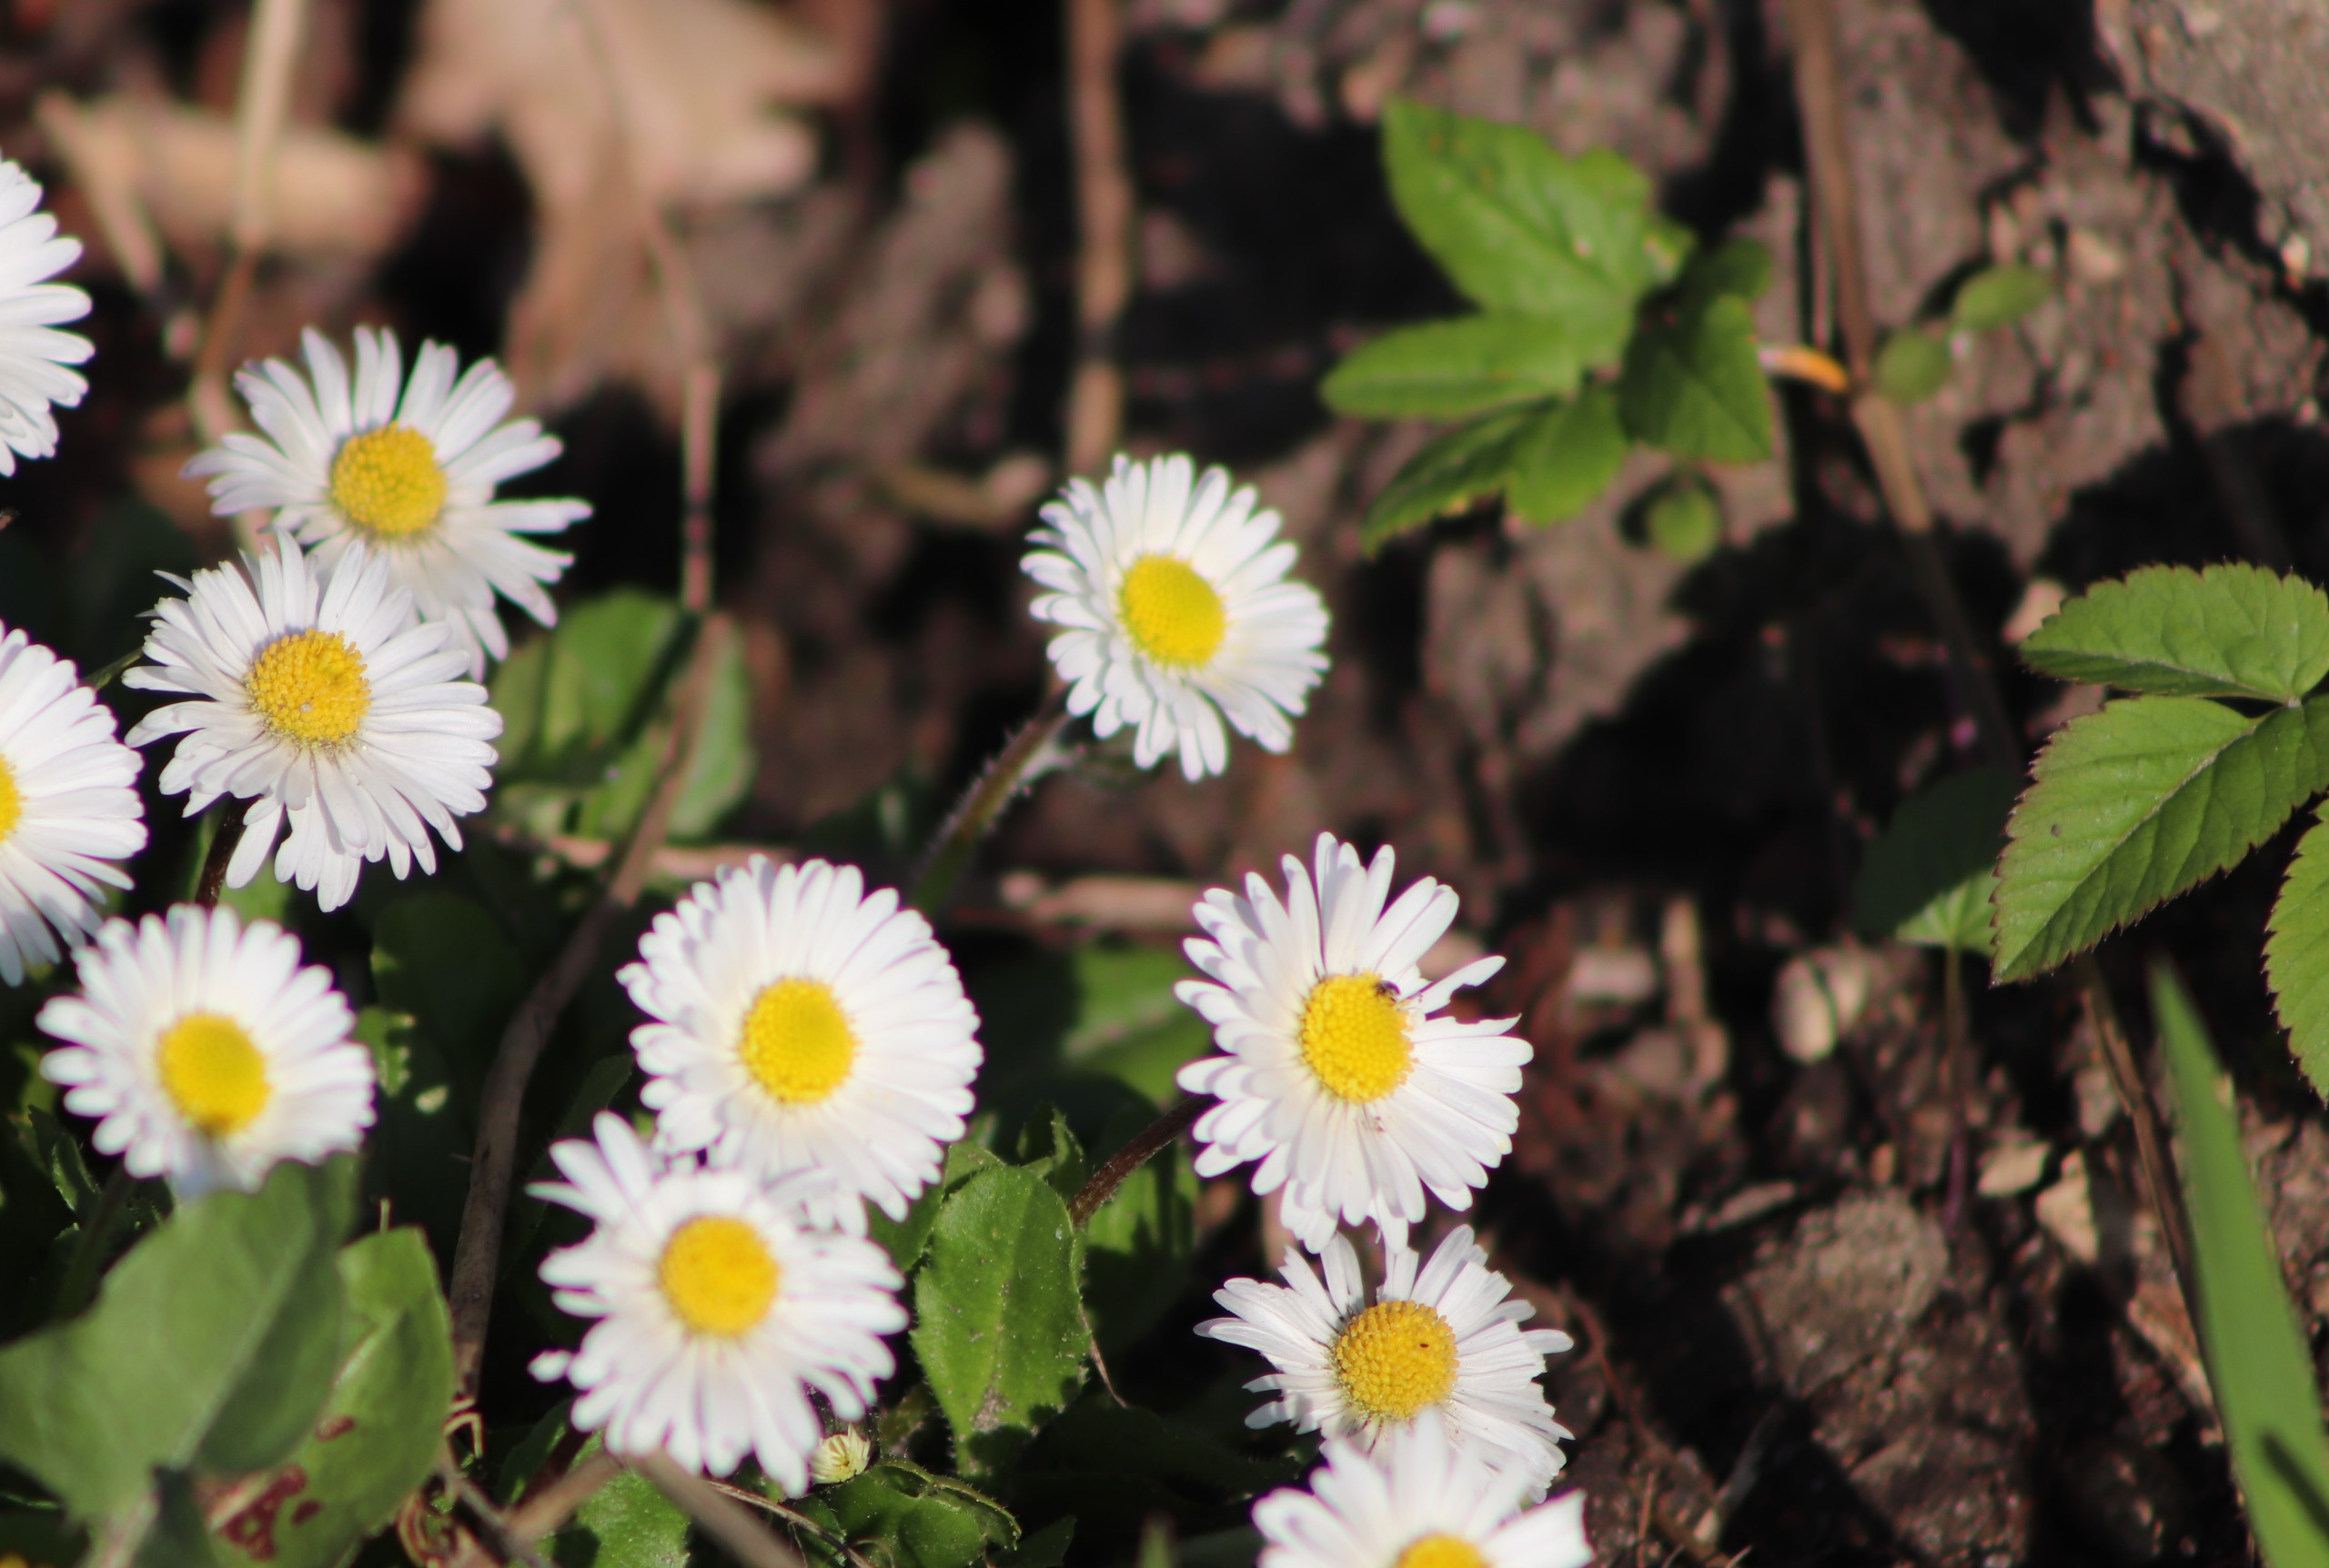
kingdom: Plantae
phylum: Tracheophyta
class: Magnoliopsida
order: Asterales
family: Asteraceae
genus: Bellis
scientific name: Bellis perennis
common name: Tusindfryd
